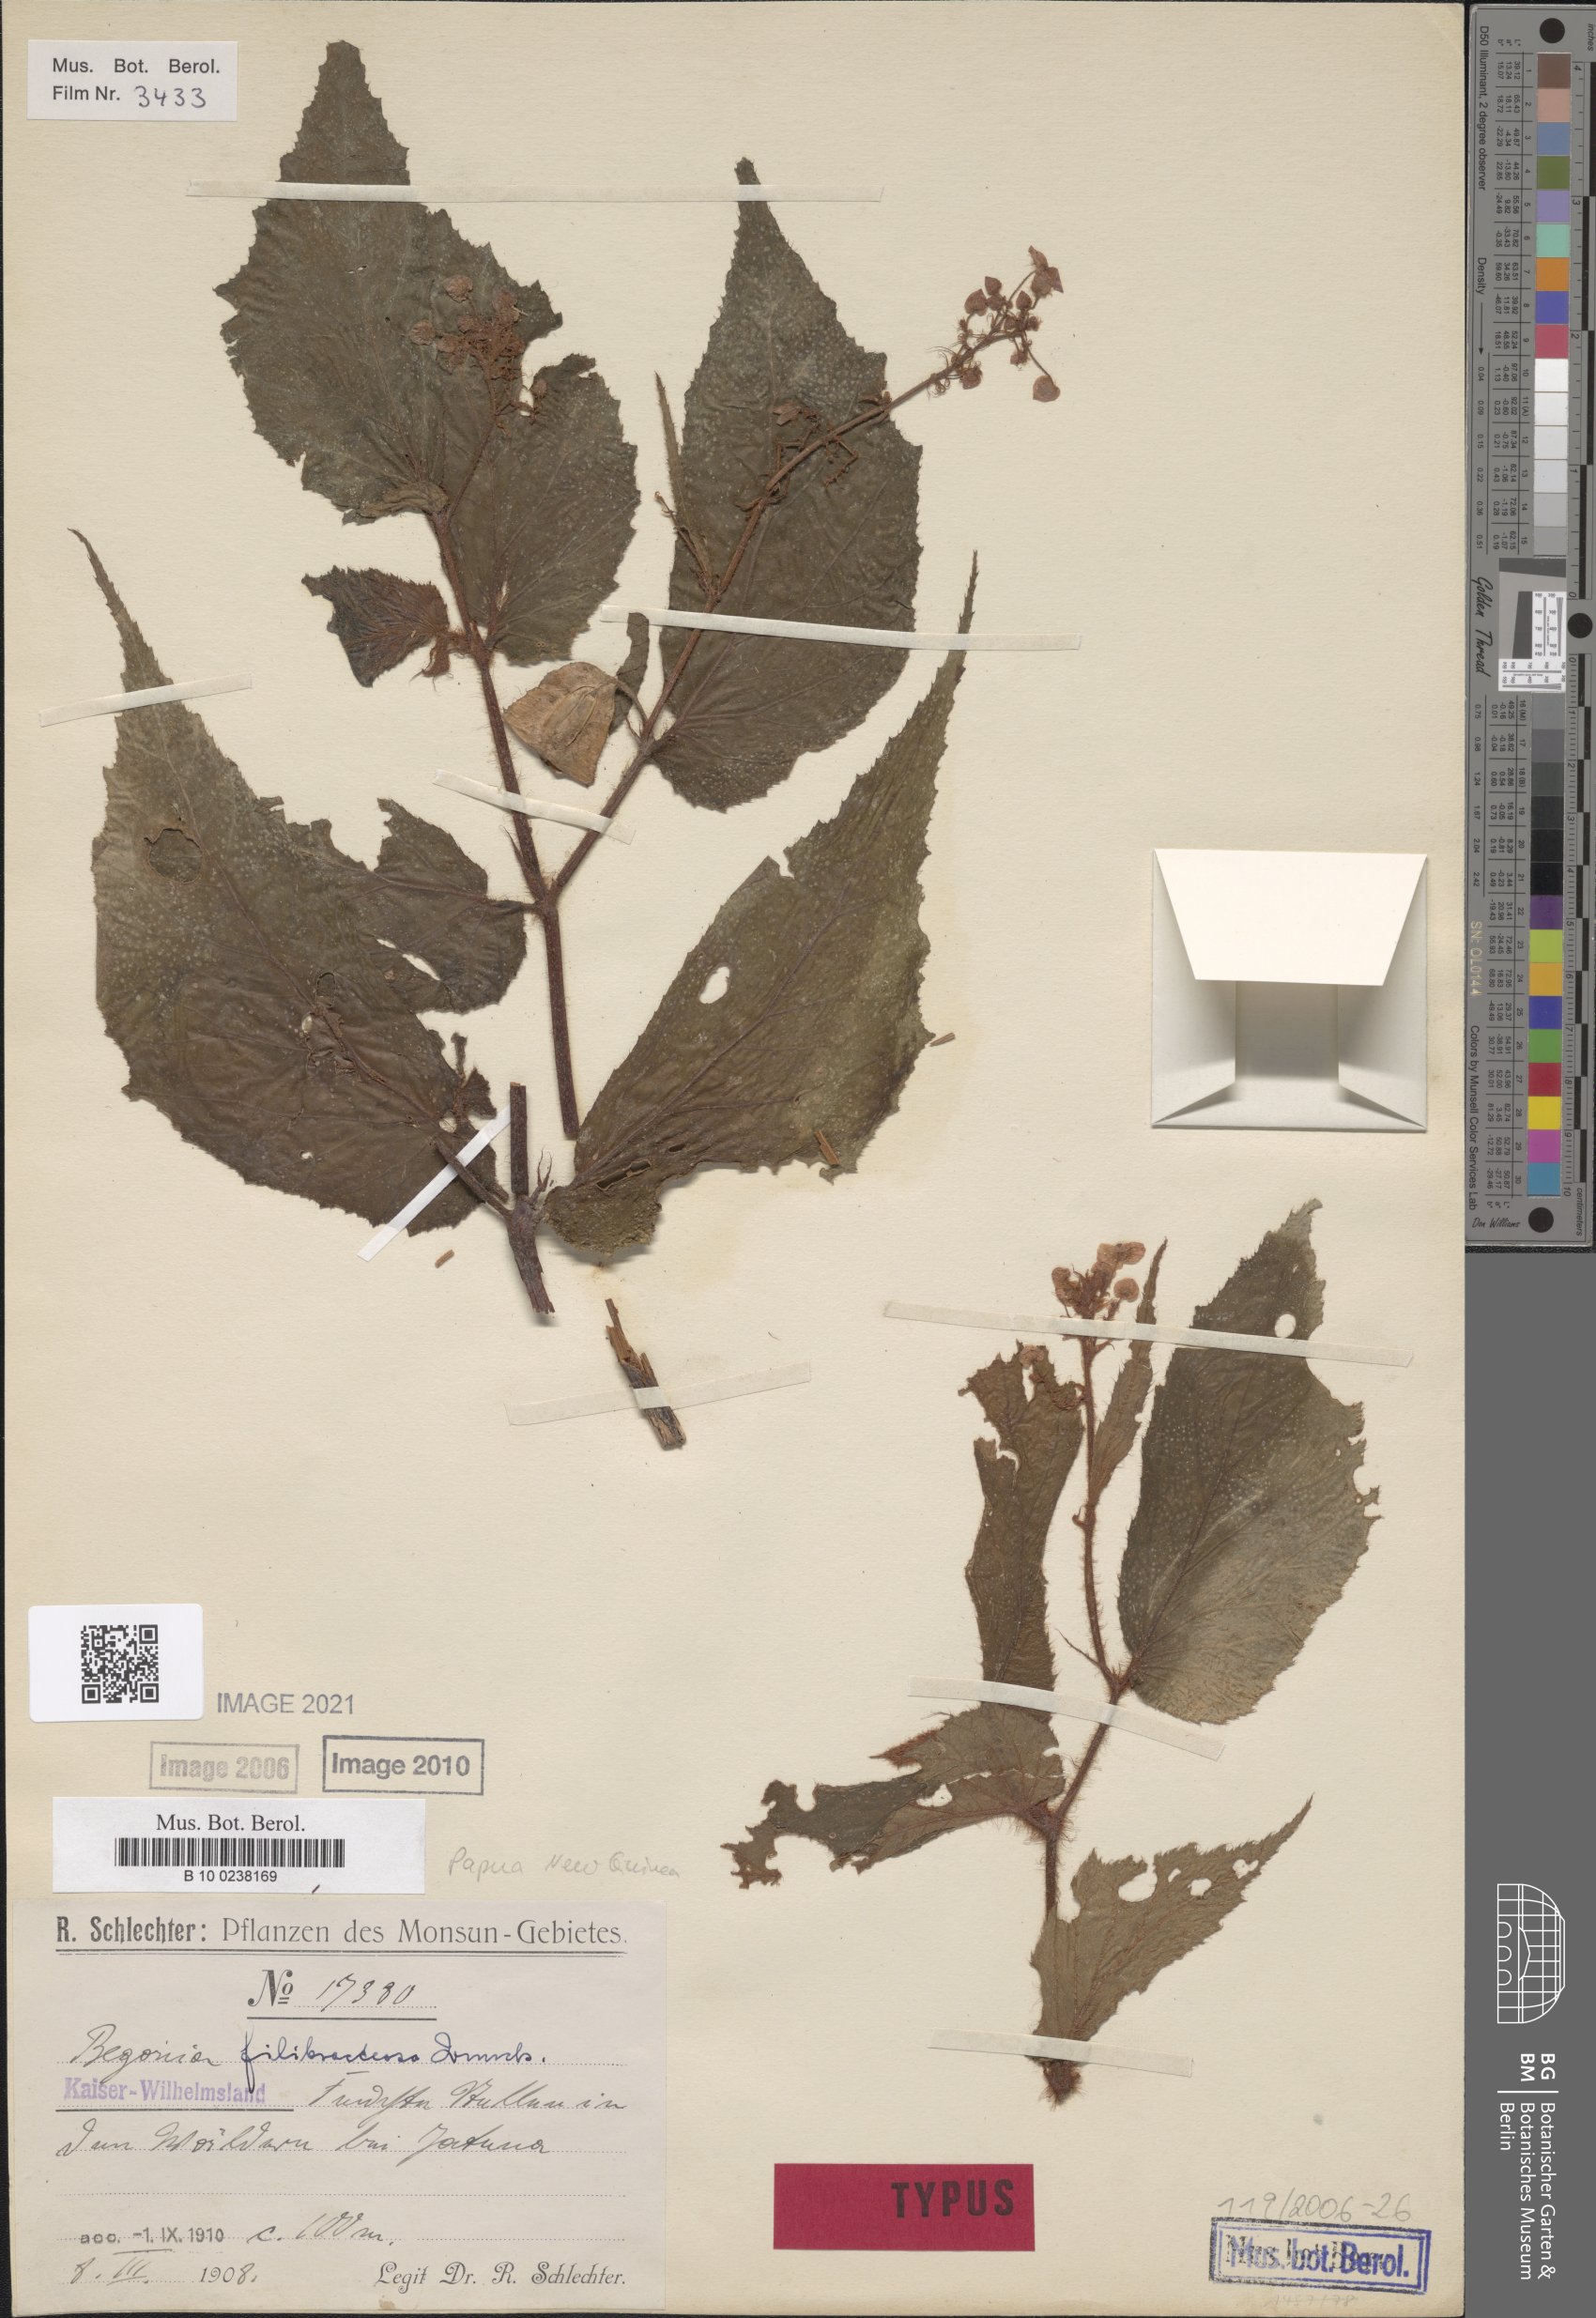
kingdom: Plantae
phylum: Tracheophyta
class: Magnoliopsida
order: Cucurbitales
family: Begoniaceae
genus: Begonia
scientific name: Begonia filibracteosa
